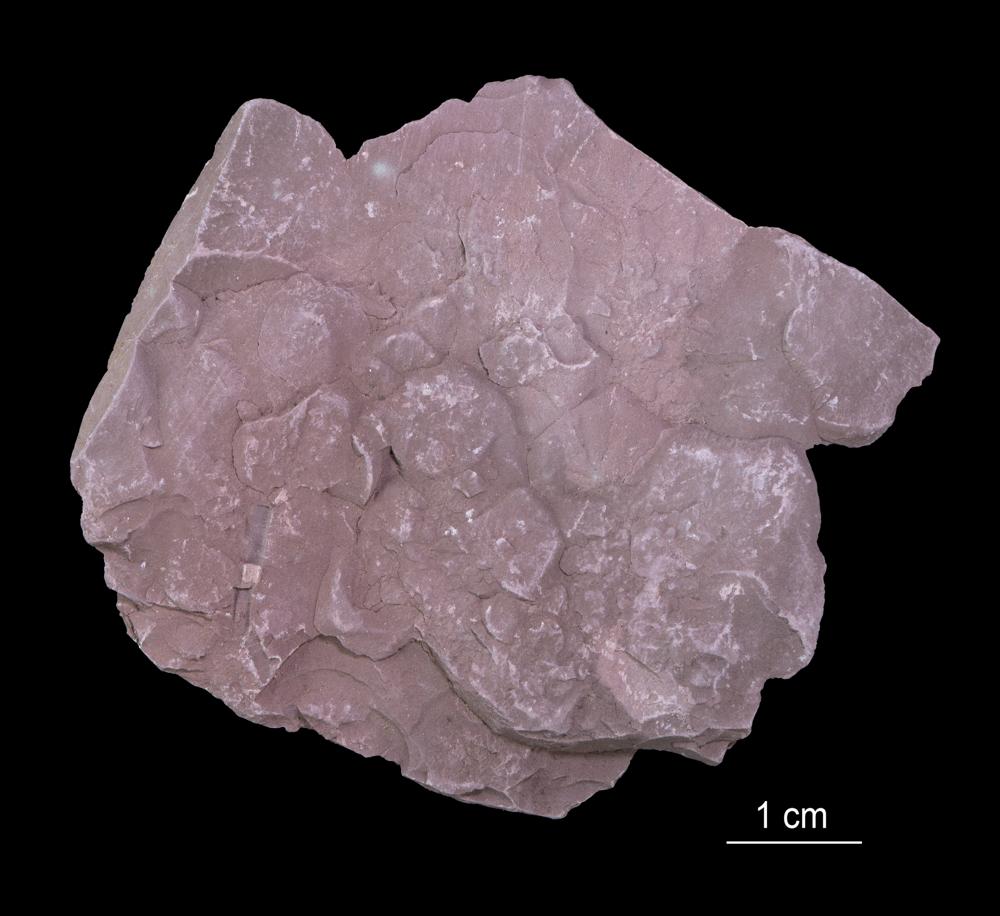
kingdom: Chromista
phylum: Foraminifera
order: Astrorhizida
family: Hyperamminidae
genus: Platysolenites
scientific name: Platysolenites
